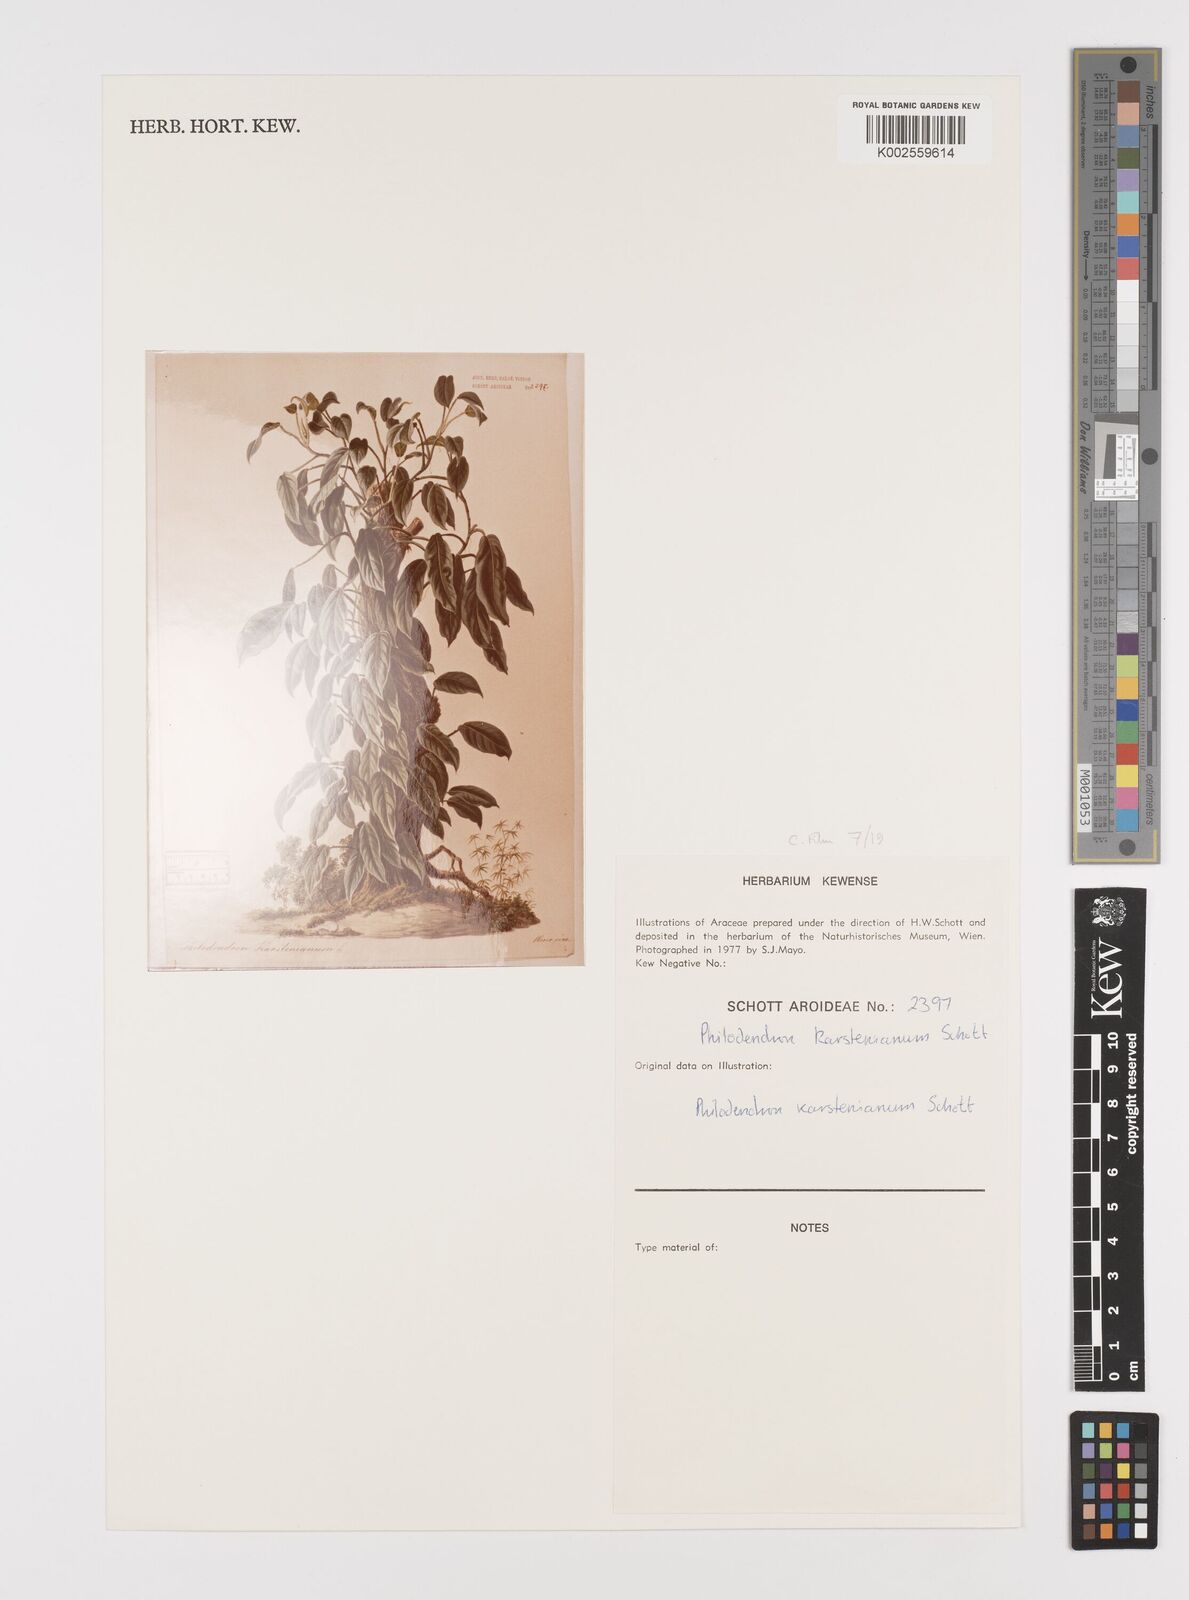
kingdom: Plantae
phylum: Tracheophyta
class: Liliopsida
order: Alismatales
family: Araceae
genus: Philodendron
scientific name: Philodendron venosum
